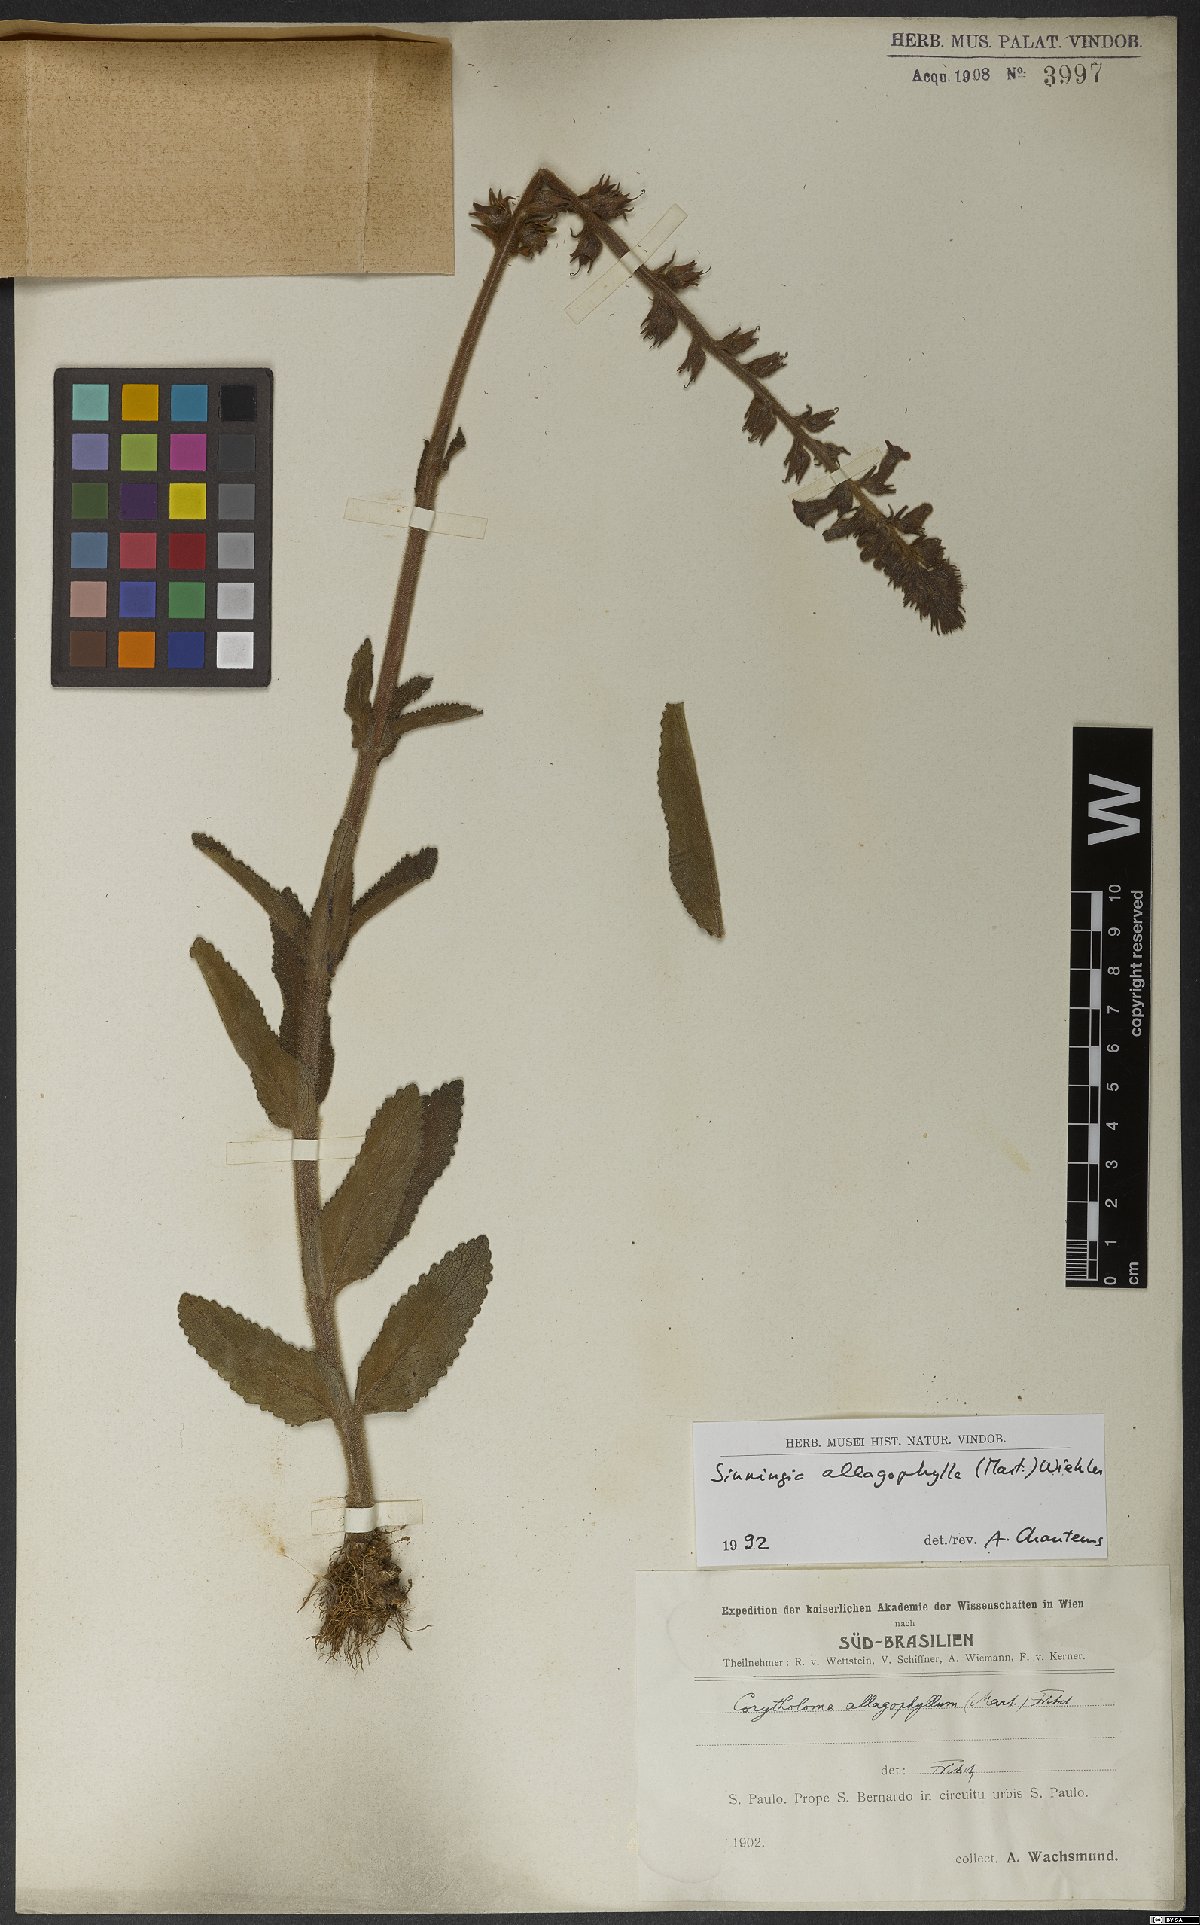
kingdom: Plantae
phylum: Tracheophyta
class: Magnoliopsida
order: Lamiales
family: Gesneriaceae
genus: Sinningia
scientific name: Sinningia allagophylla
